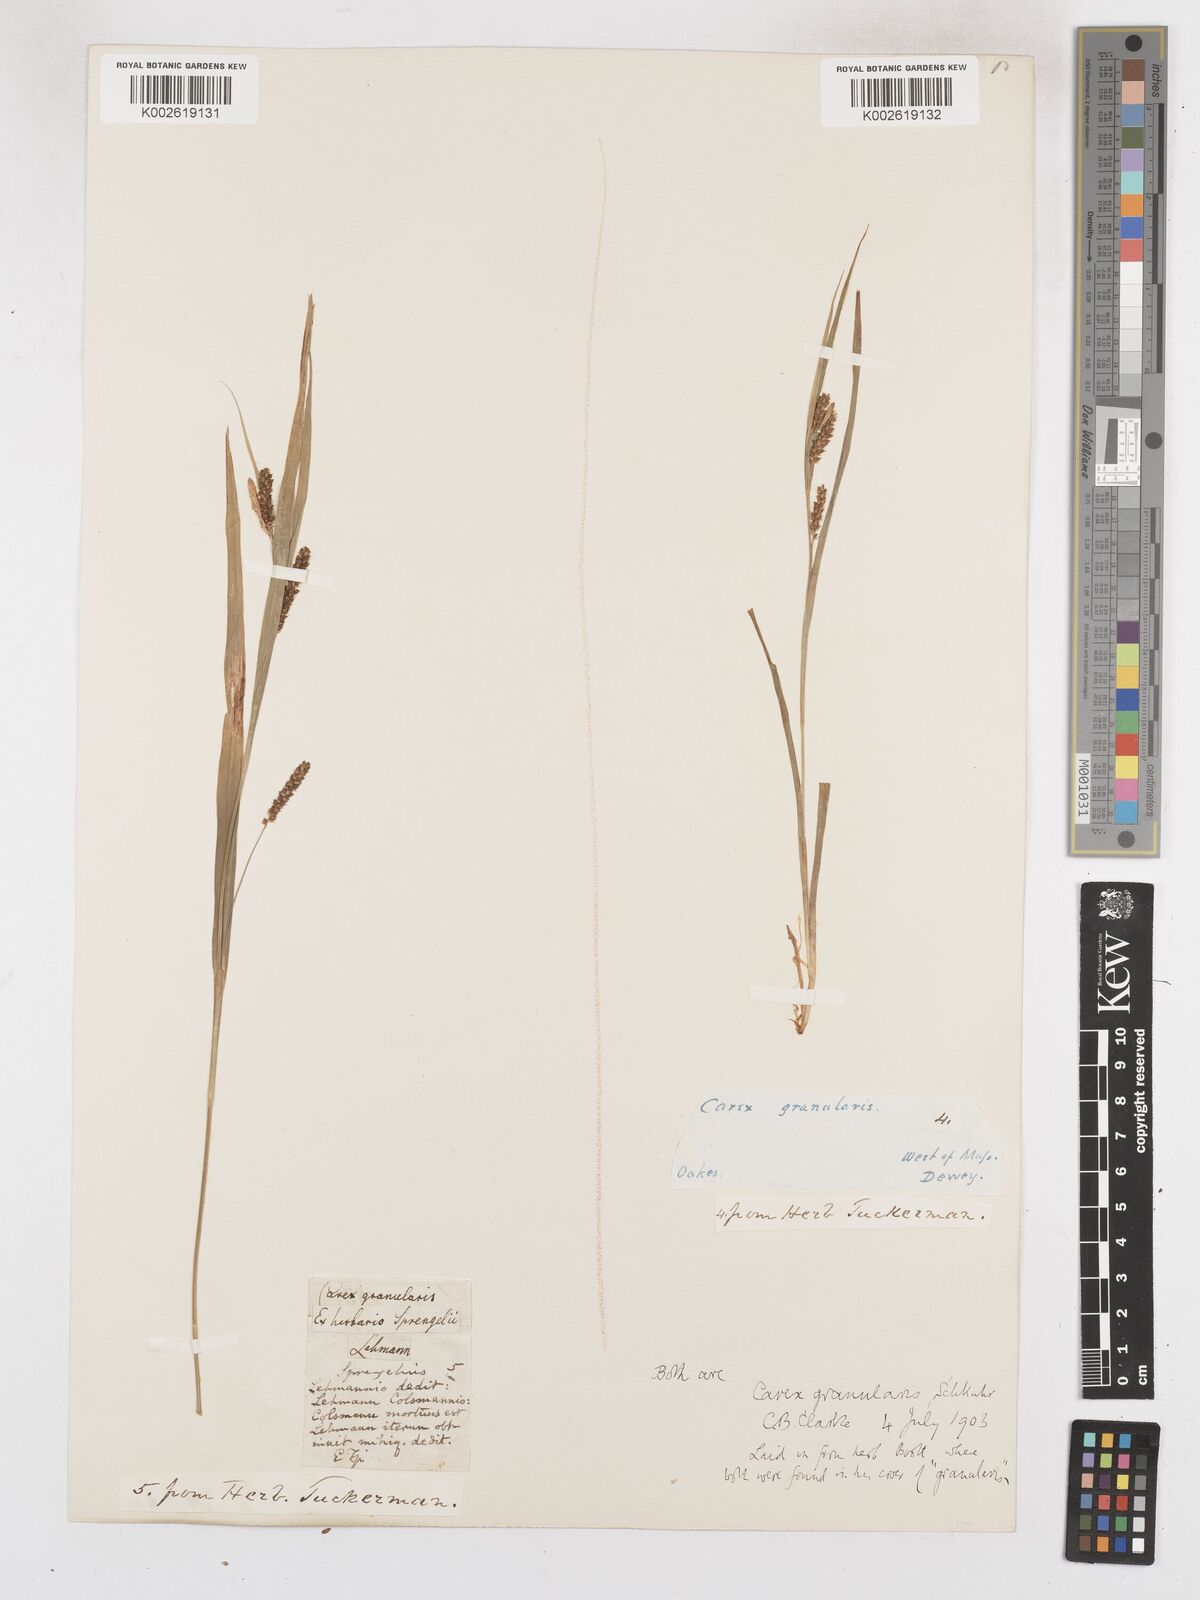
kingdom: Plantae
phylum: Tracheophyta
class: Liliopsida
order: Poales
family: Cyperaceae
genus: Carex
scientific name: Carex granularis
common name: Granular sedge
